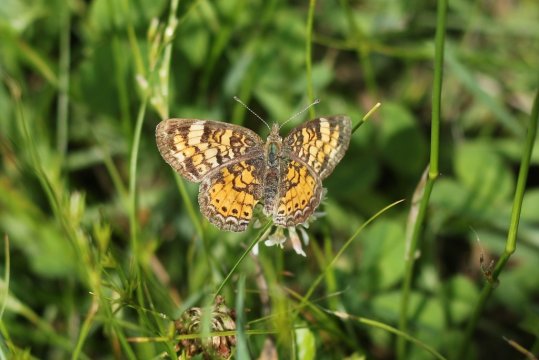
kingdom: Animalia
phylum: Arthropoda
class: Insecta
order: Lepidoptera
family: Nymphalidae
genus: Phyciodes
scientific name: Phyciodes tharos
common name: Pearl Crescent
